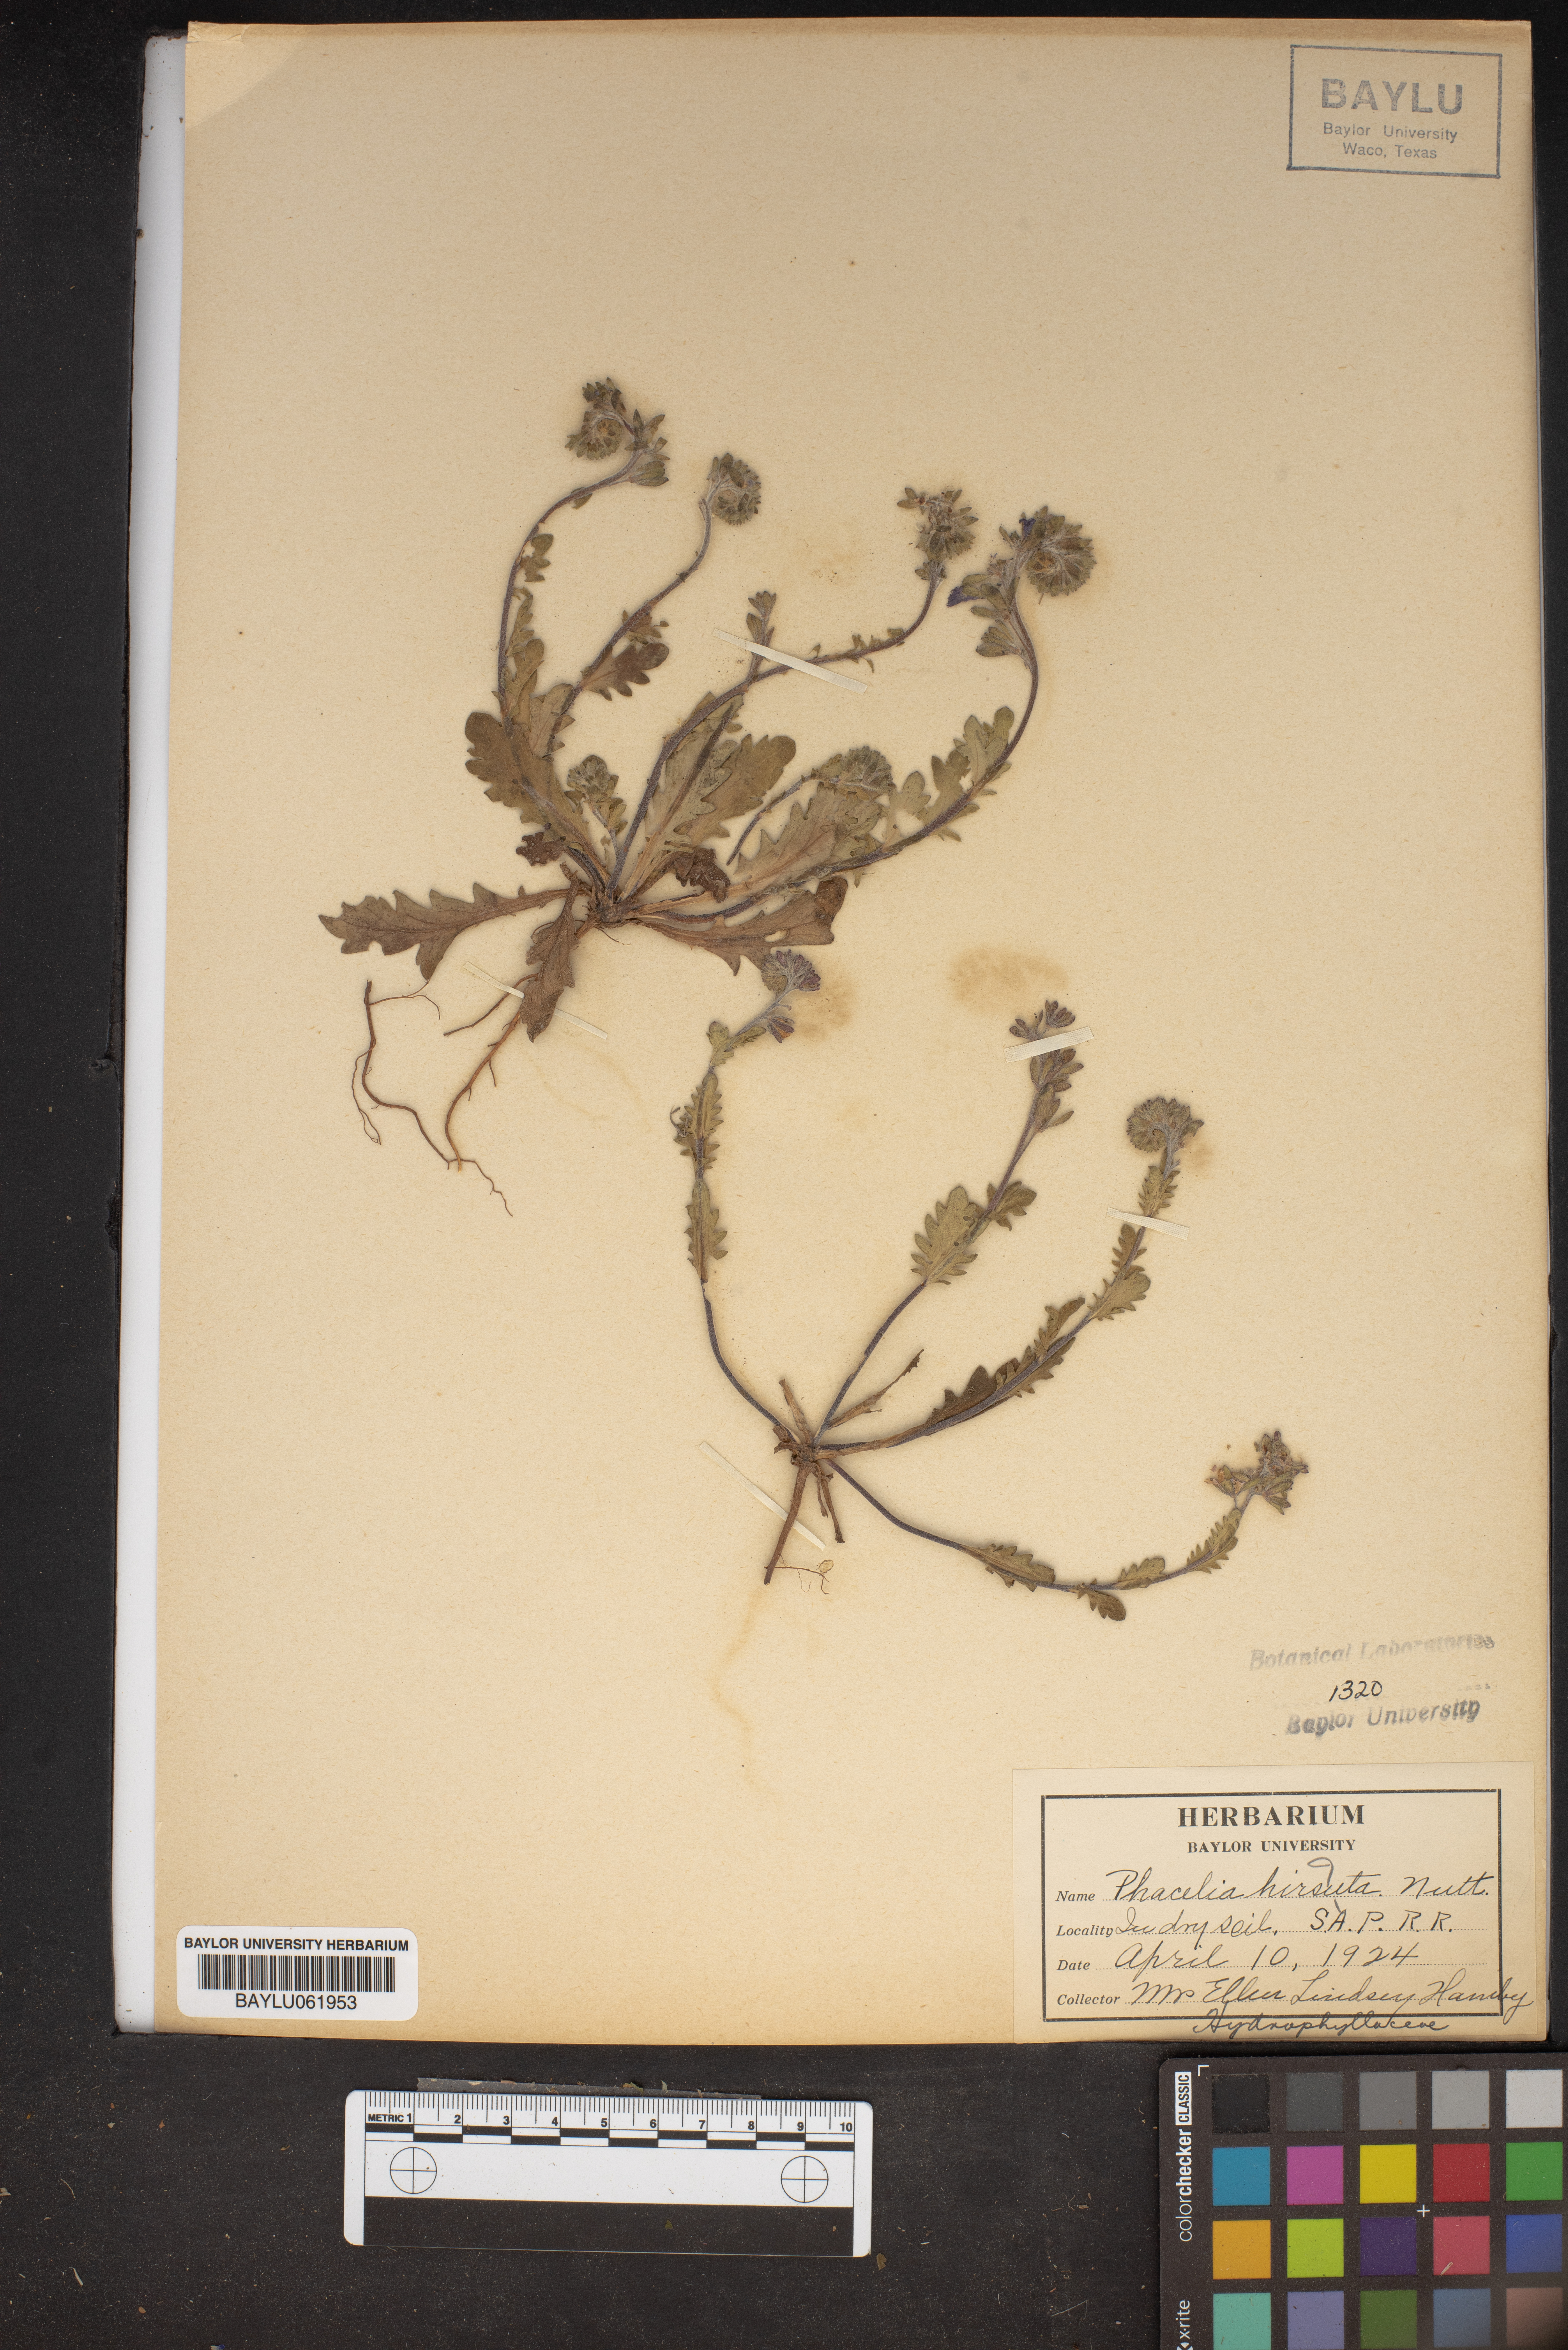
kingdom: Plantae
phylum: Tracheophyta
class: Magnoliopsida
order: Boraginales
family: Hydrophyllaceae
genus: Phacelia
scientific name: Phacelia hirsuta
